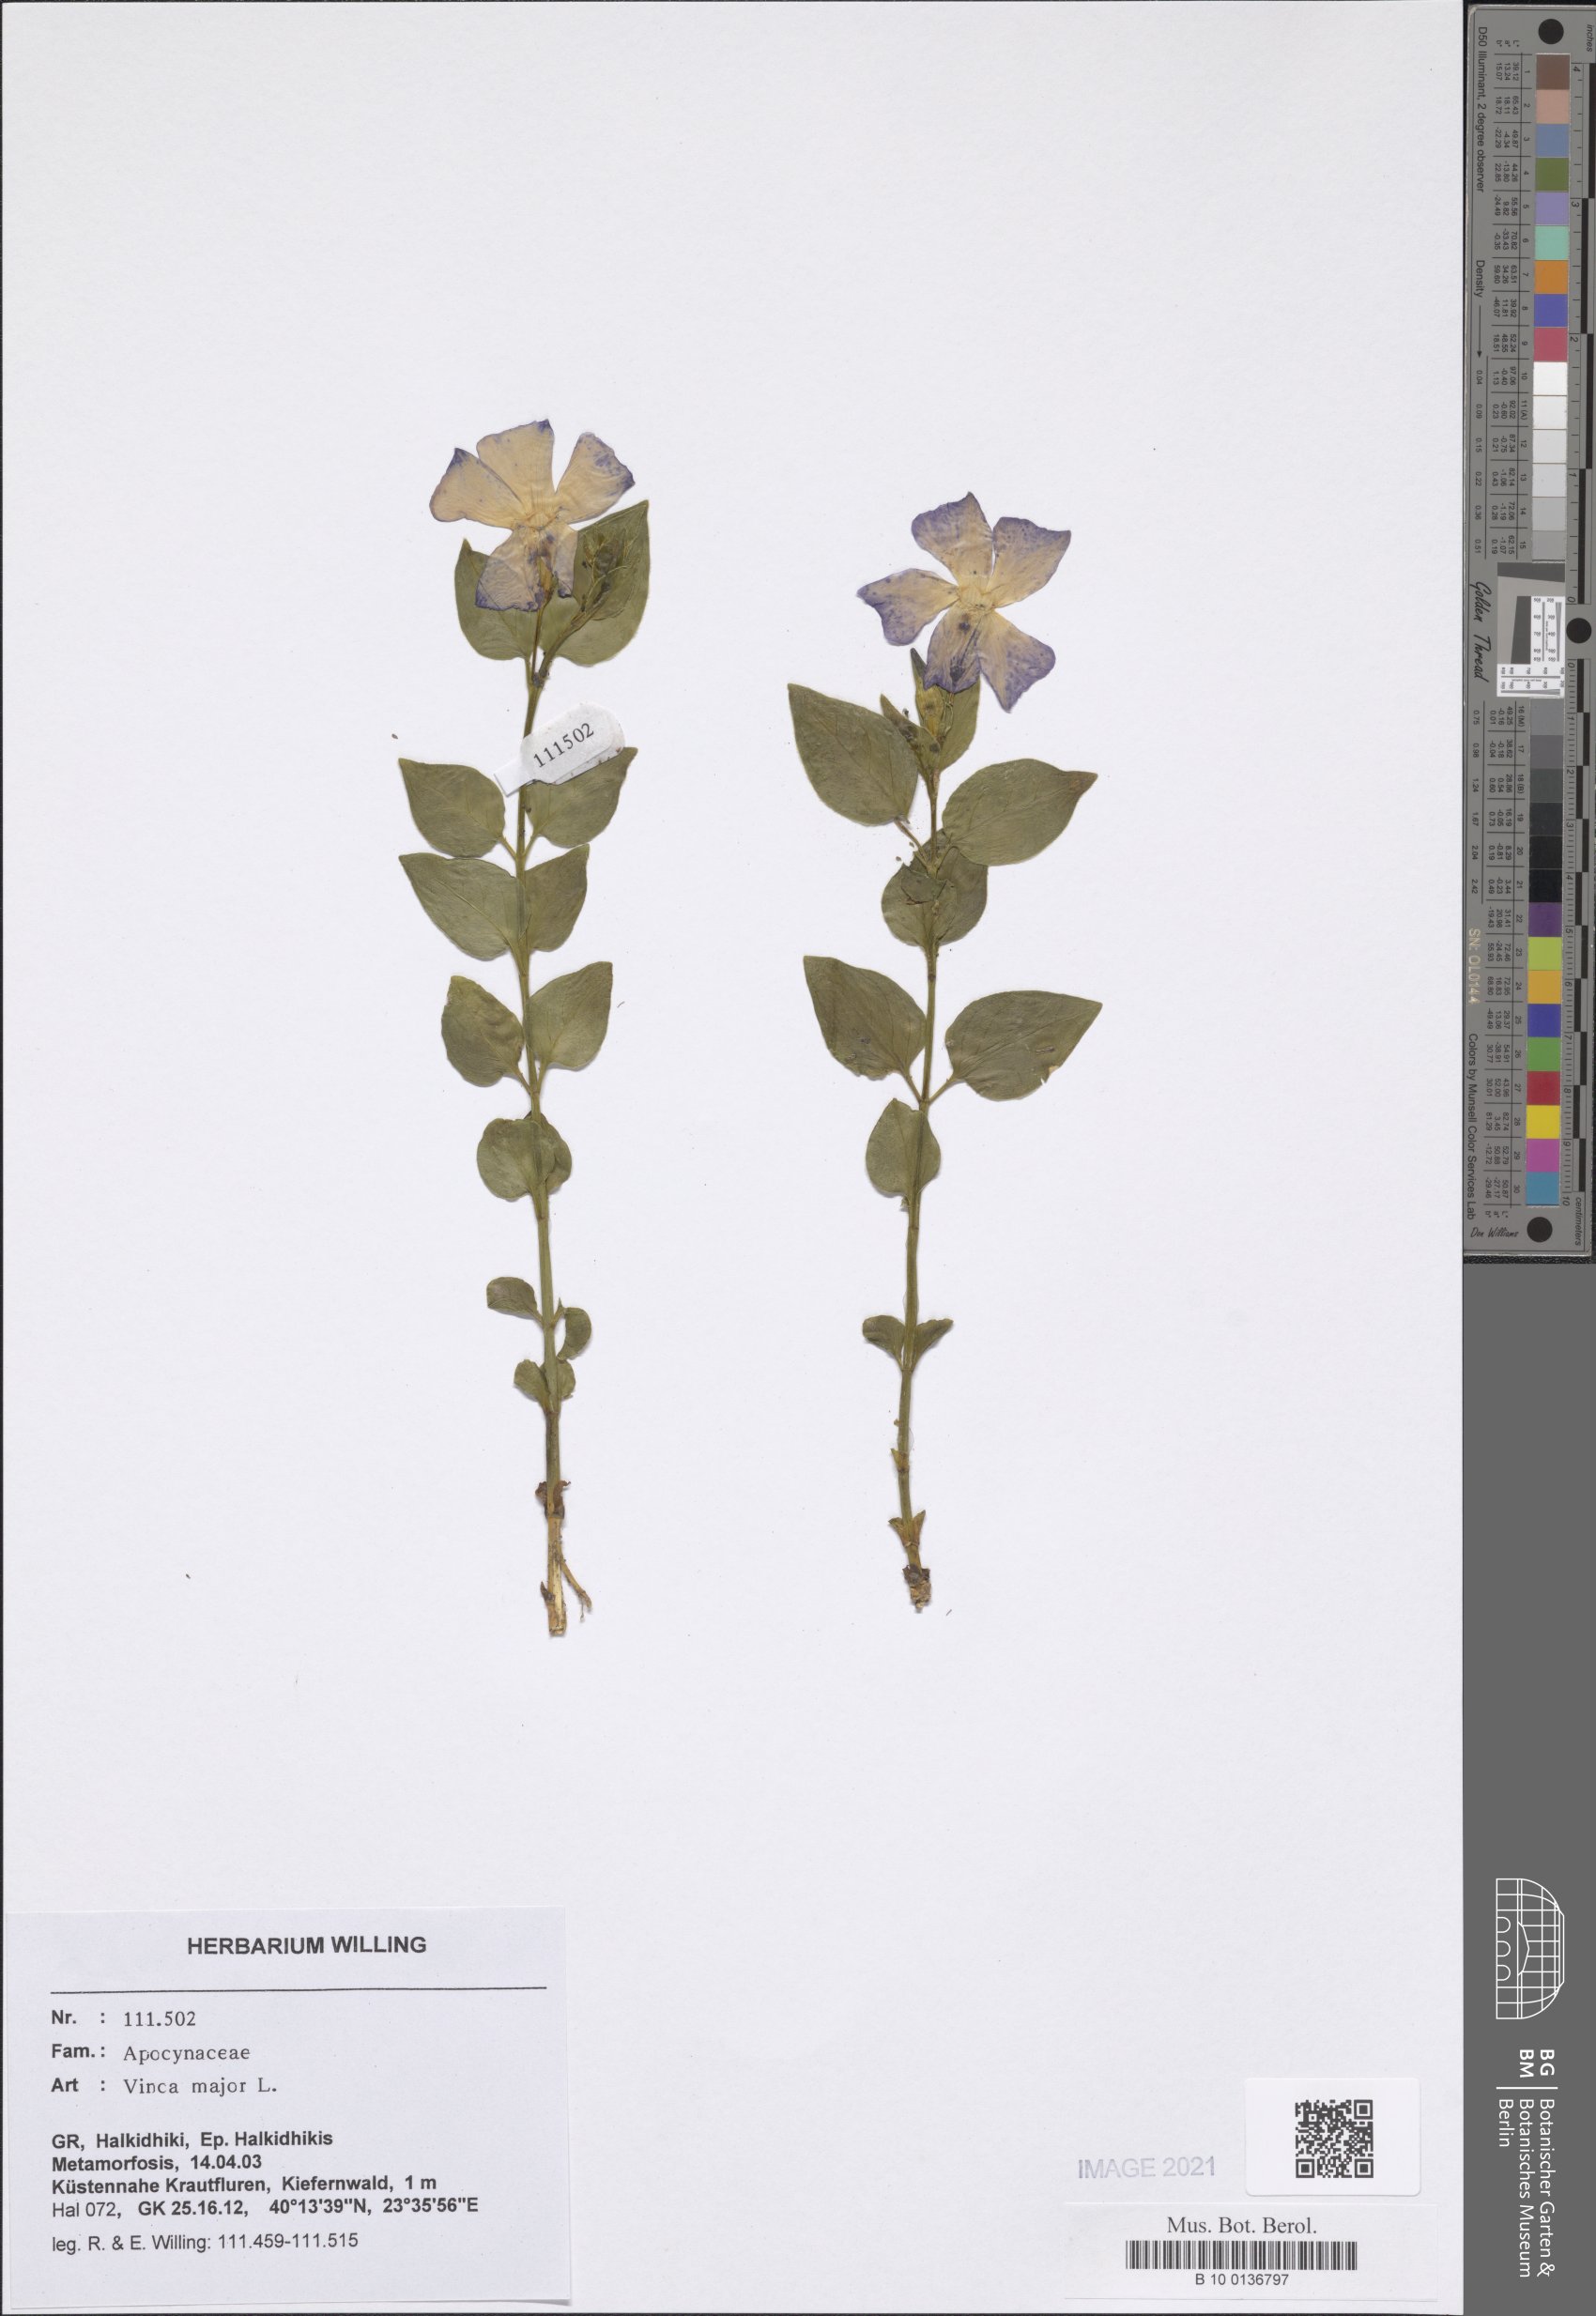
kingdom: Plantae
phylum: Tracheophyta
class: Magnoliopsida
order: Gentianales
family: Apocynaceae
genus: Vinca
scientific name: Vinca major
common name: Greater periwinkle
